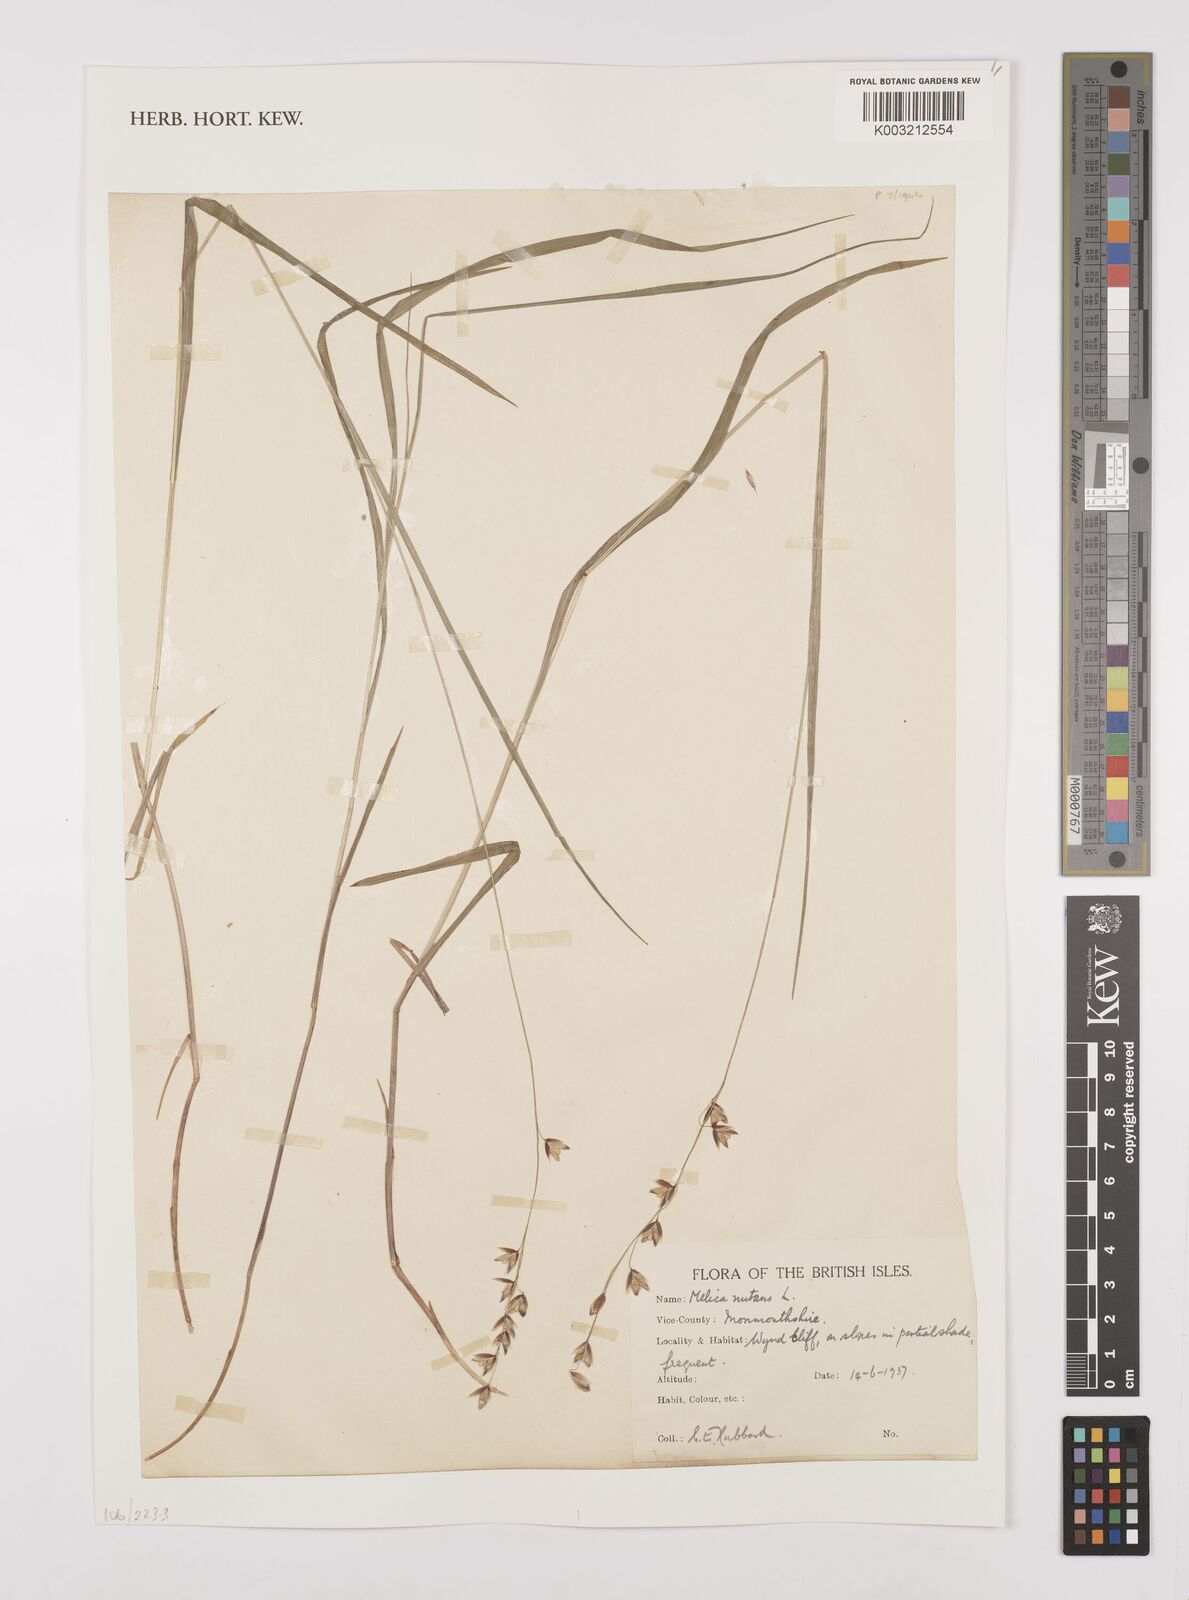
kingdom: Plantae
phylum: Tracheophyta
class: Liliopsida
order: Poales
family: Poaceae
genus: Melica
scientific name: Melica
